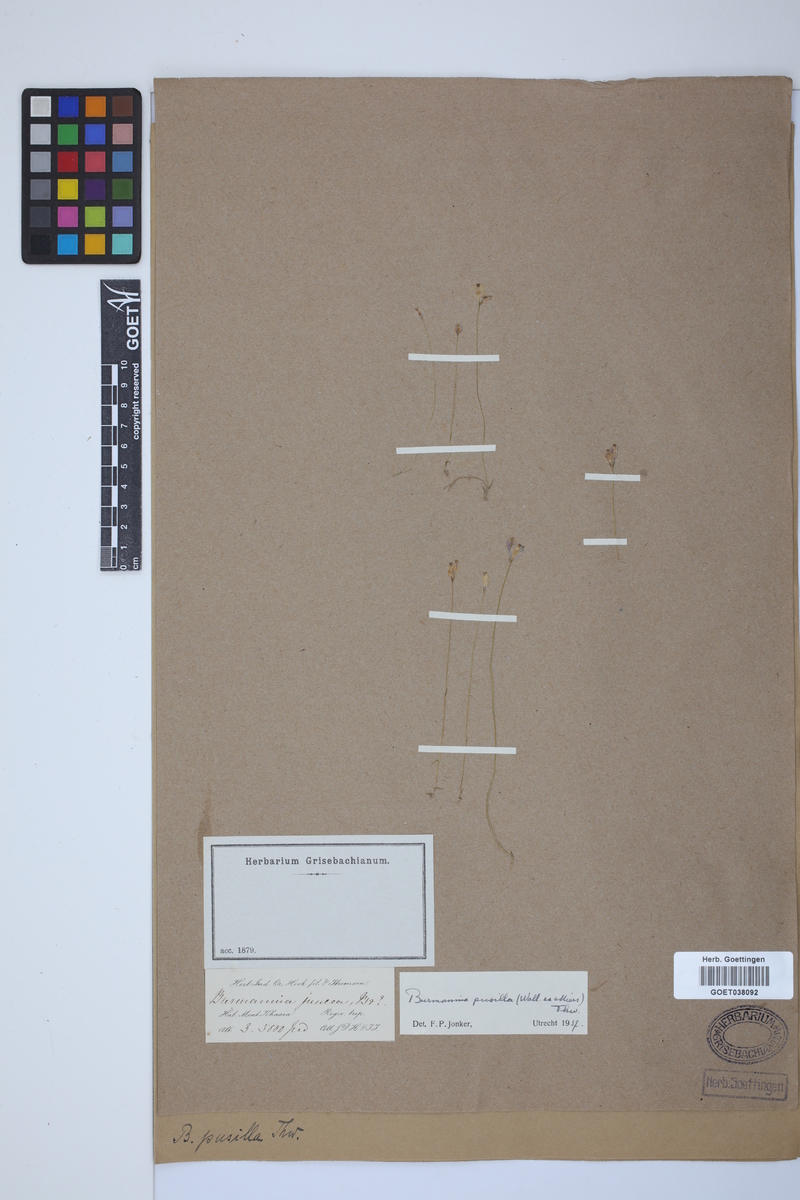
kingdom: Plantae
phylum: Tracheophyta
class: Liliopsida
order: Dioscoreales
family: Burmanniaceae
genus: Burmannia
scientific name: Burmannia pusilla
